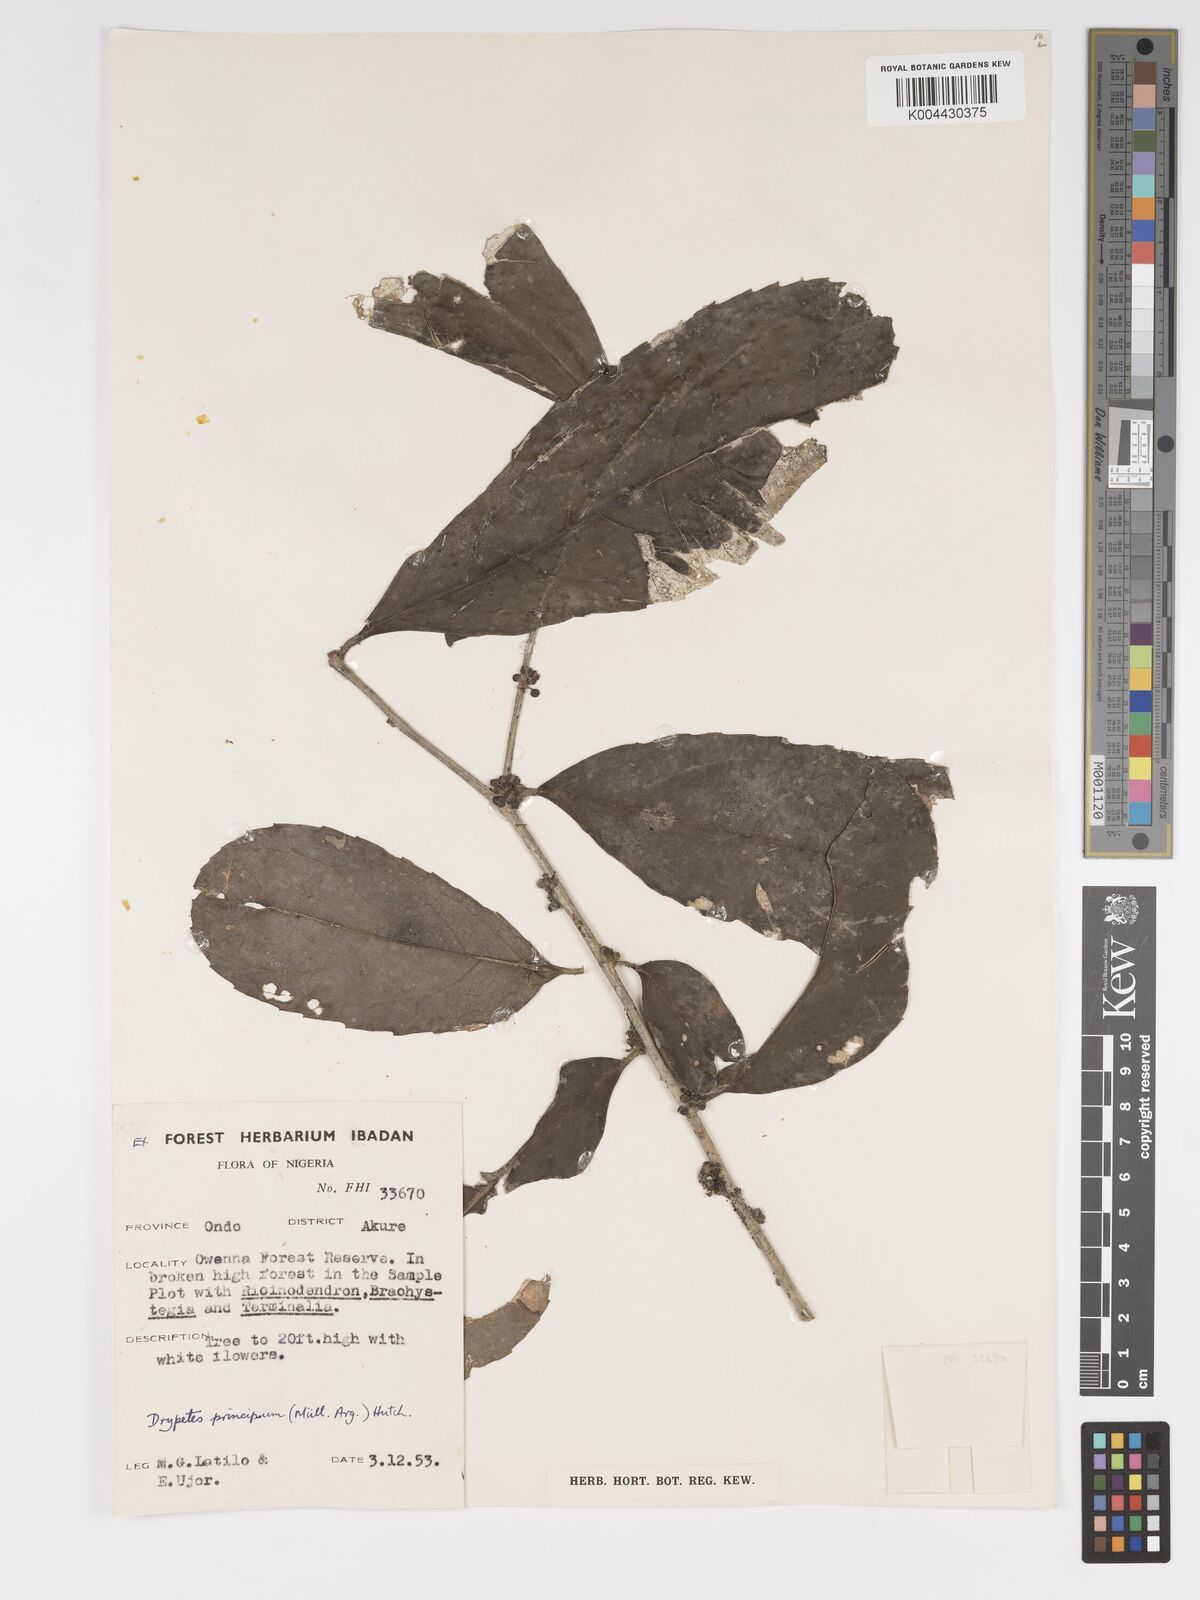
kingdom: Plantae
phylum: Tracheophyta
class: Magnoliopsida
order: Malpighiales
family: Putranjivaceae
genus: Drypetes
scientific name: Drypetes principum
